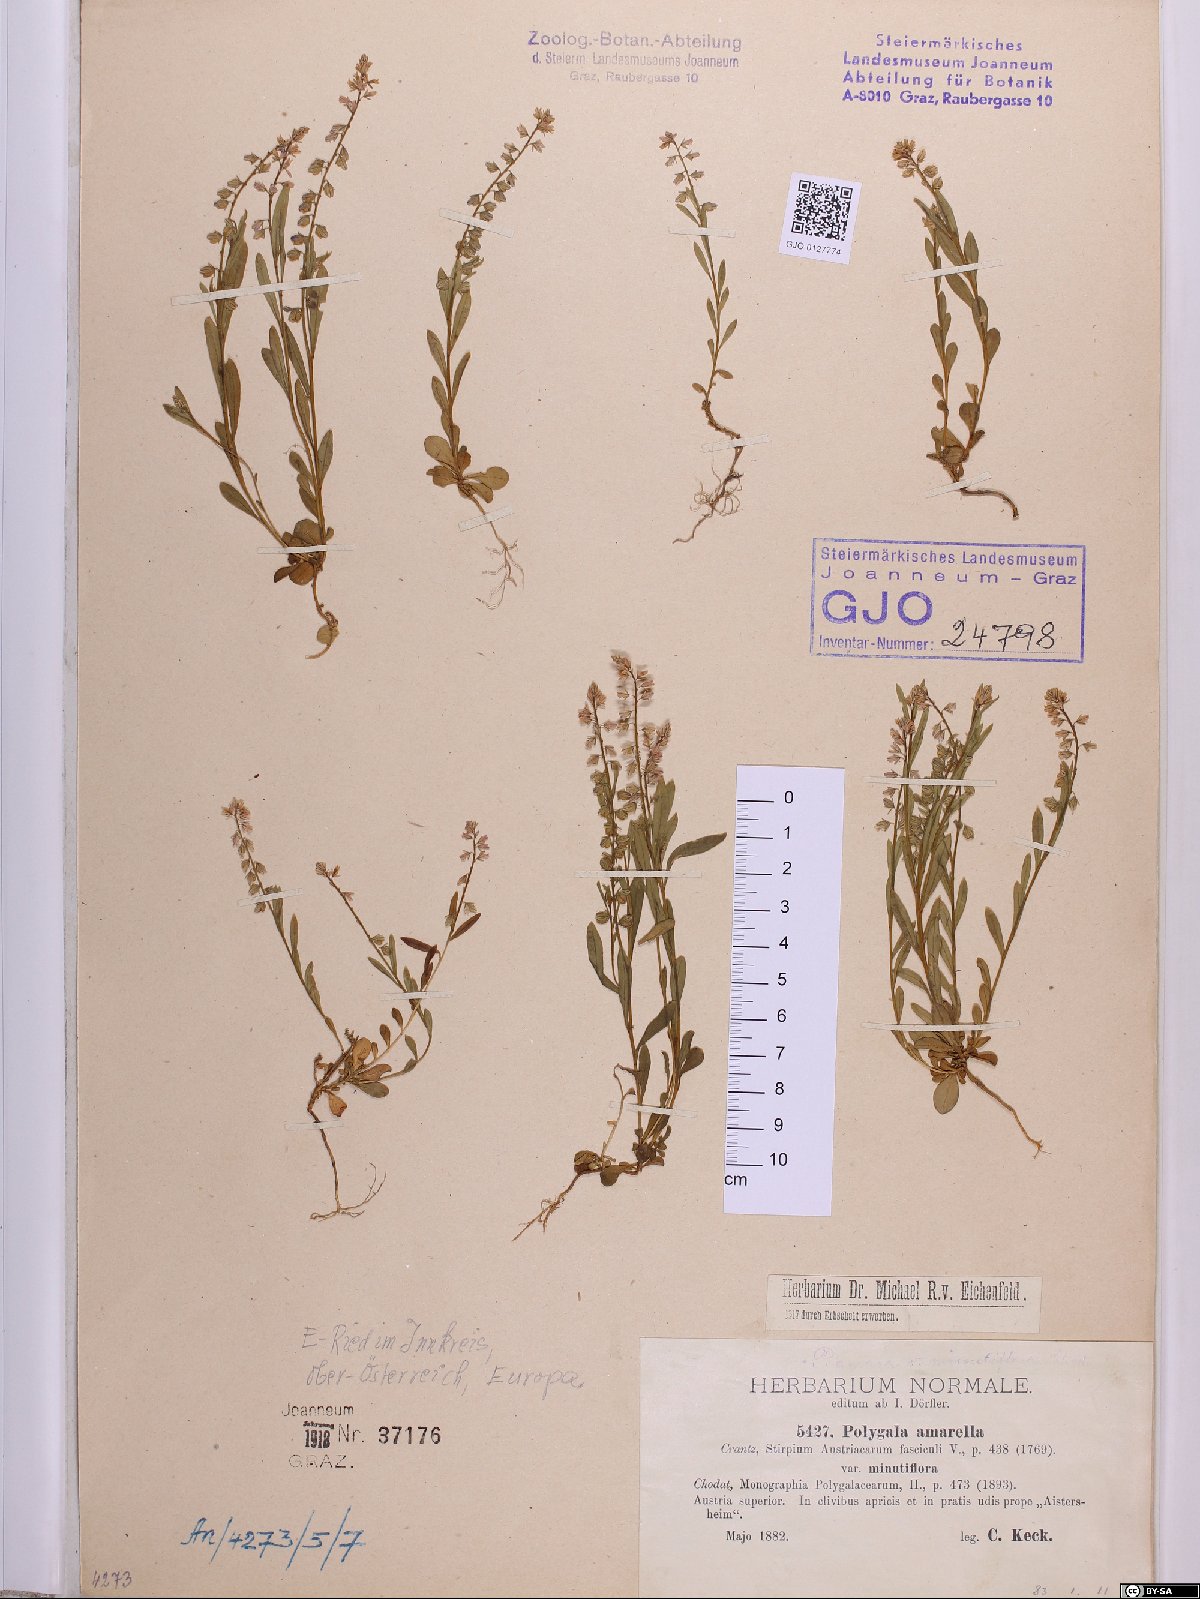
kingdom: Plantae
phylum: Tracheophyta
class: Magnoliopsida
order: Fabales
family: Polygalaceae
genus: Polygala
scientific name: Polygala amarella
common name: Dwarf milkwort
